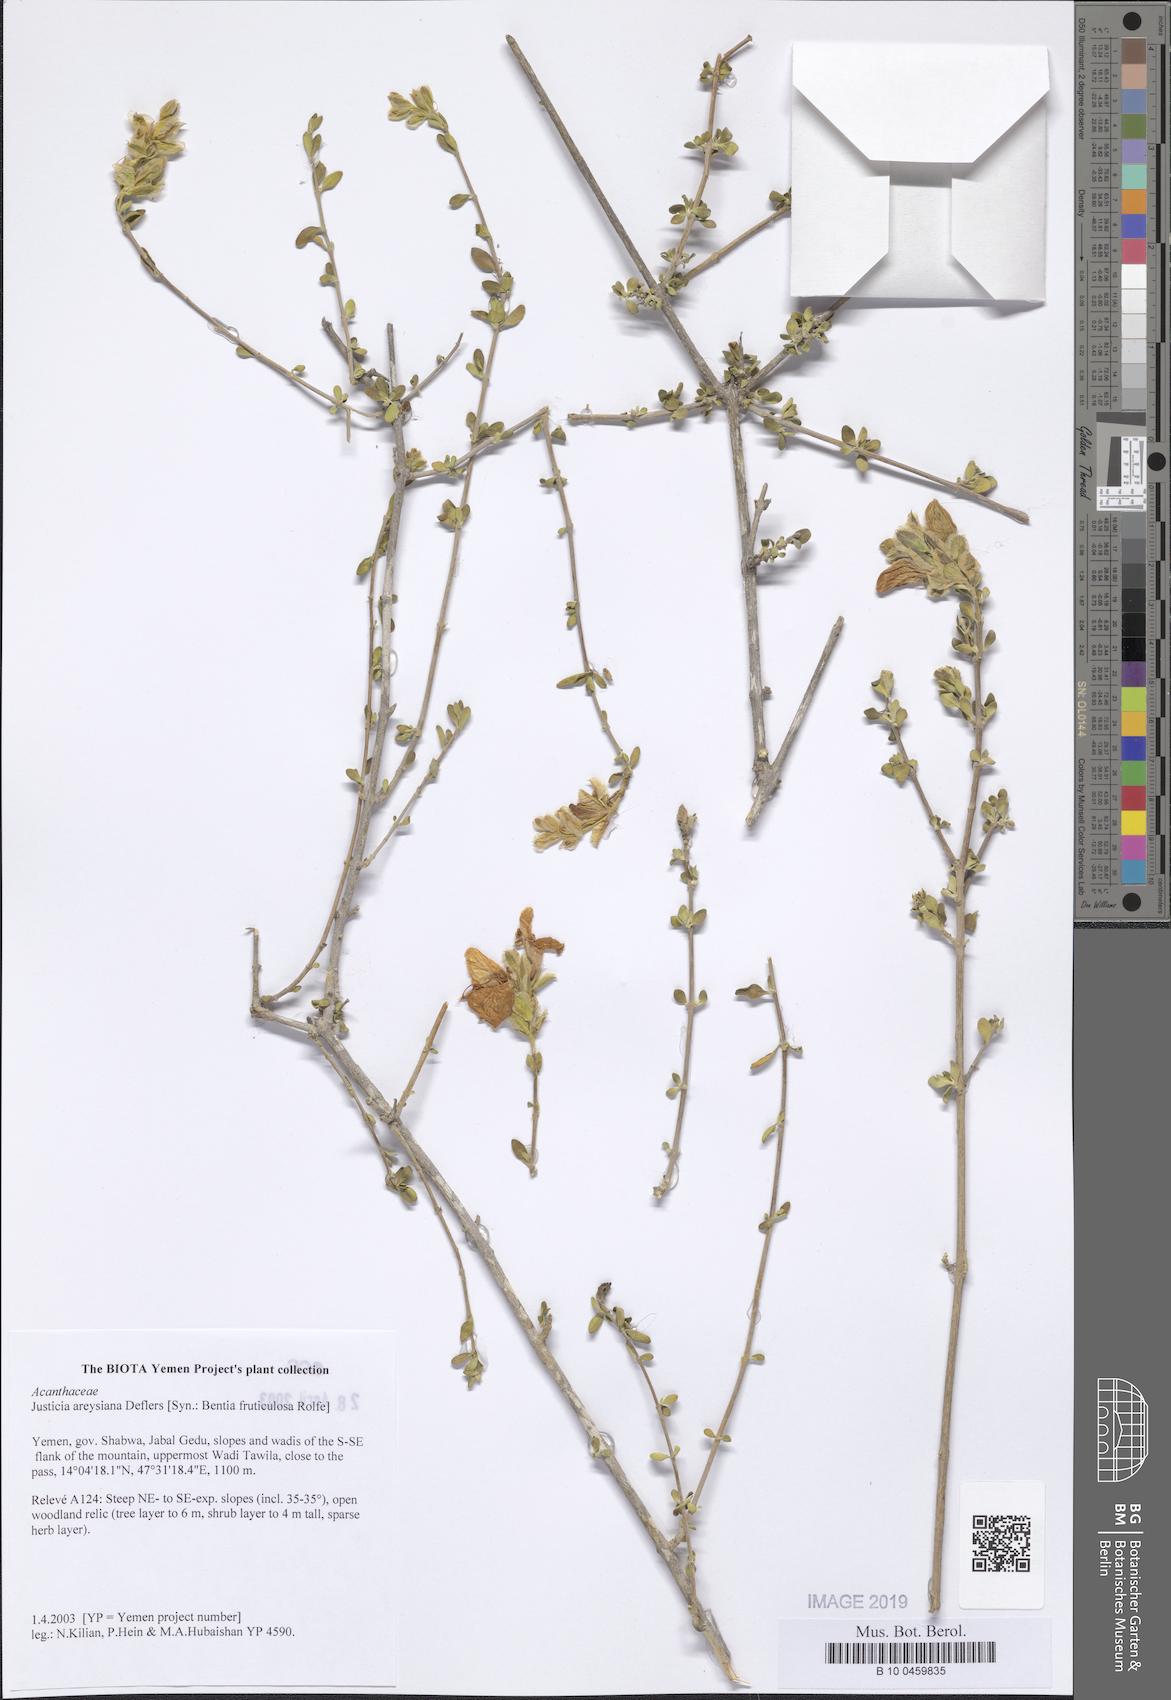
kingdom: Plantae
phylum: Tracheophyta
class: Magnoliopsida
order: Lamiales
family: Acanthaceae
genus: Justicia
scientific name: Justicia areysiana
